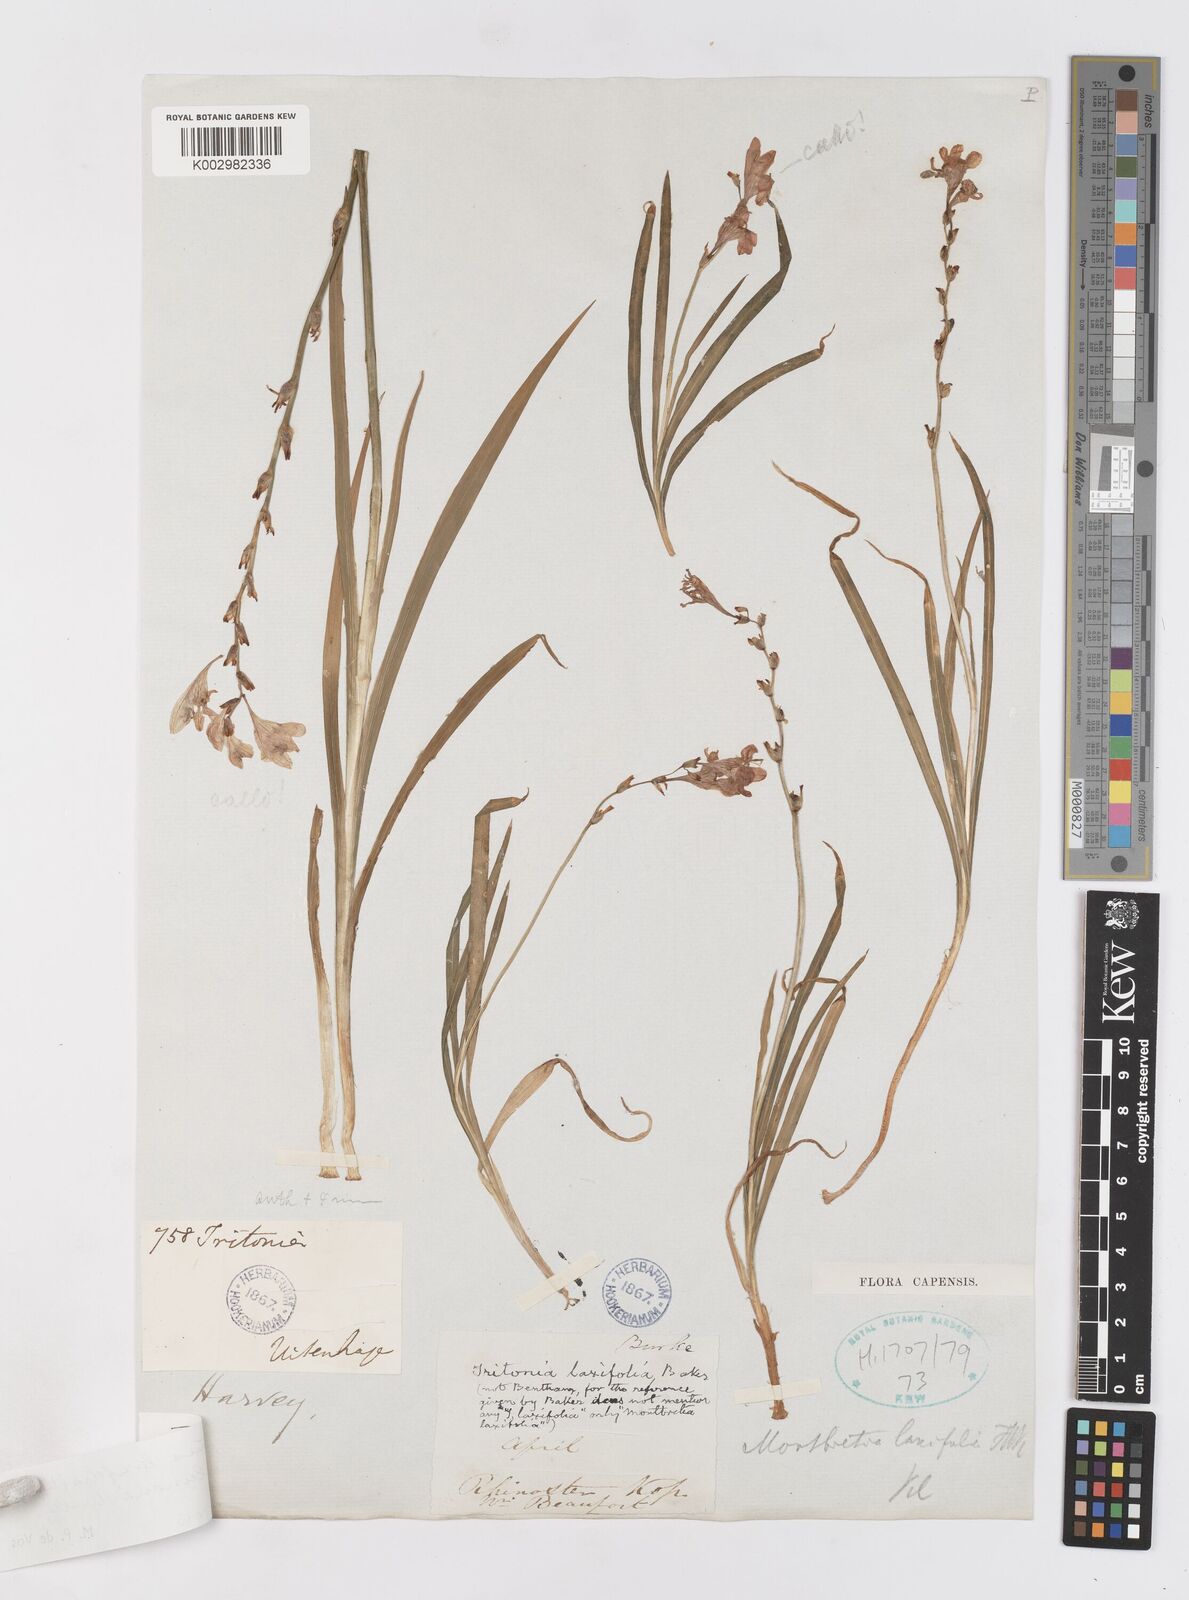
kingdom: Plantae
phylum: Tracheophyta
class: Liliopsida
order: Asparagales
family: Iridaceae
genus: Tritonia
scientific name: Tritonia laxifolia
